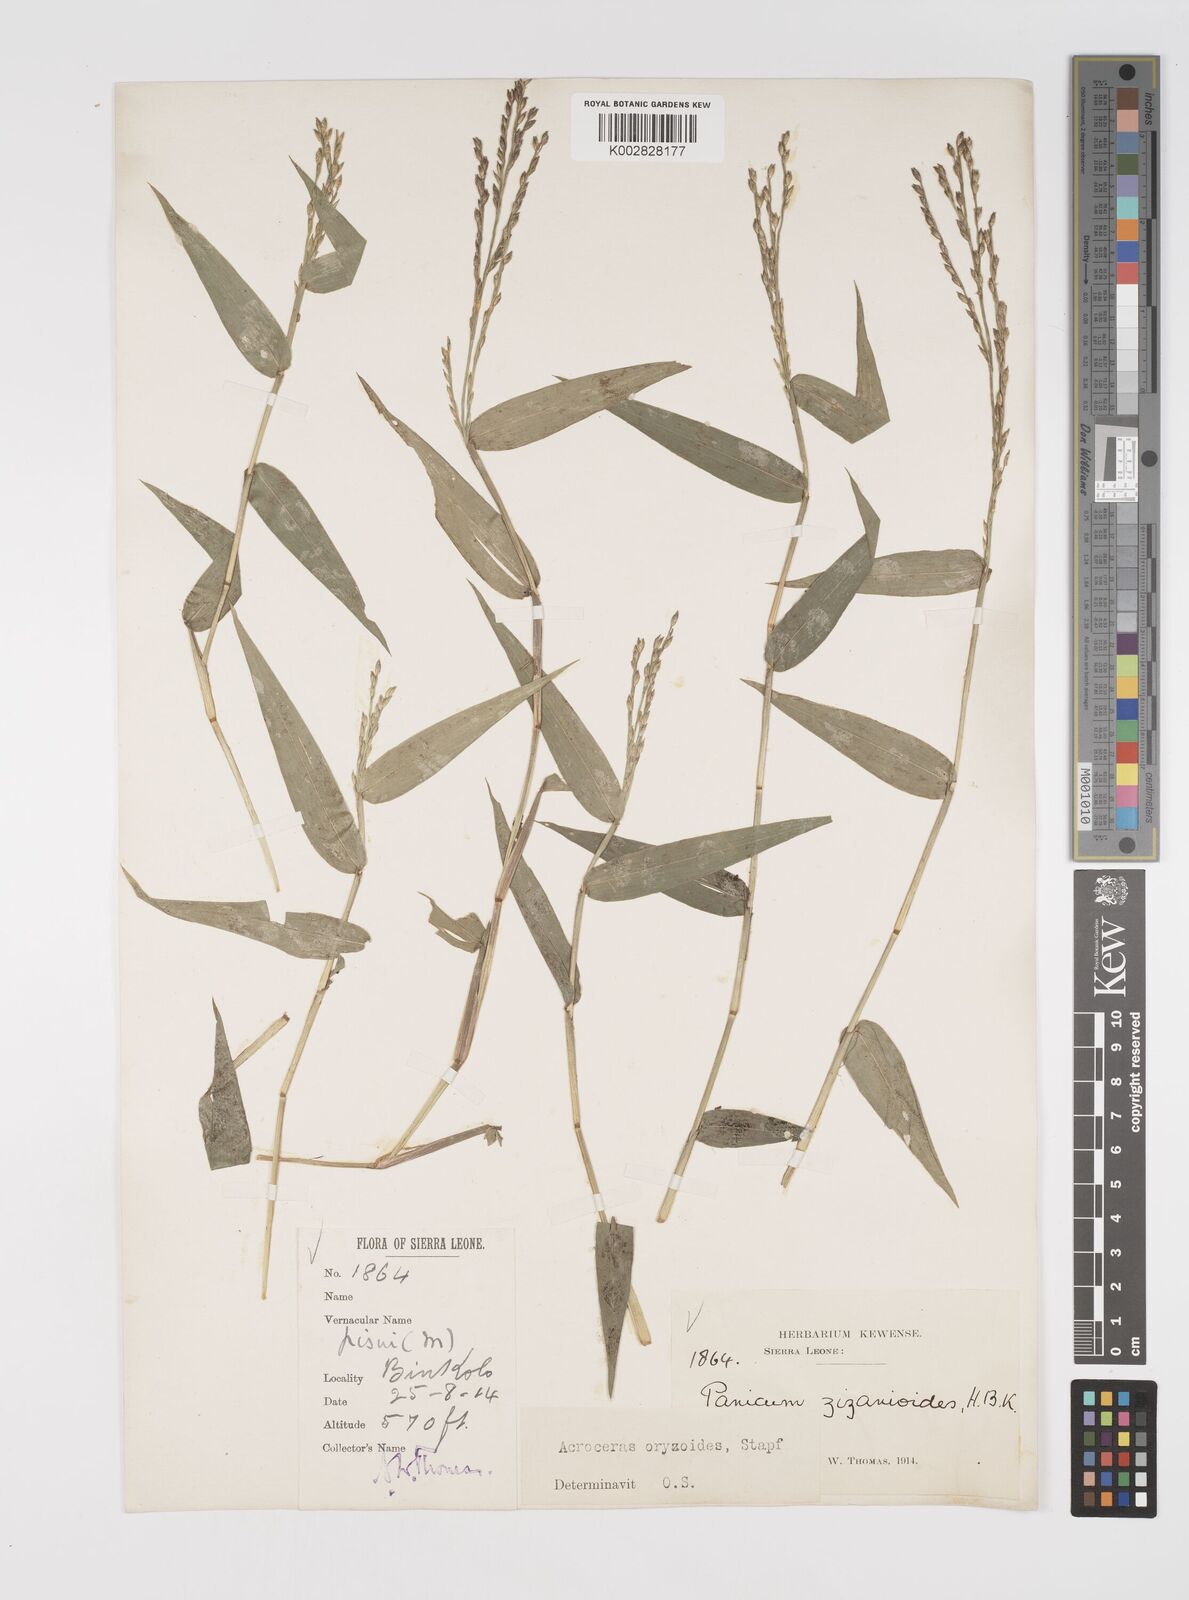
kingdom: Plantae
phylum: Tracheophyta
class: Liliopsida
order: Poales
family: Poaceae
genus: Acroceras
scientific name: Acroceras zizanioides
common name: Oat grass
